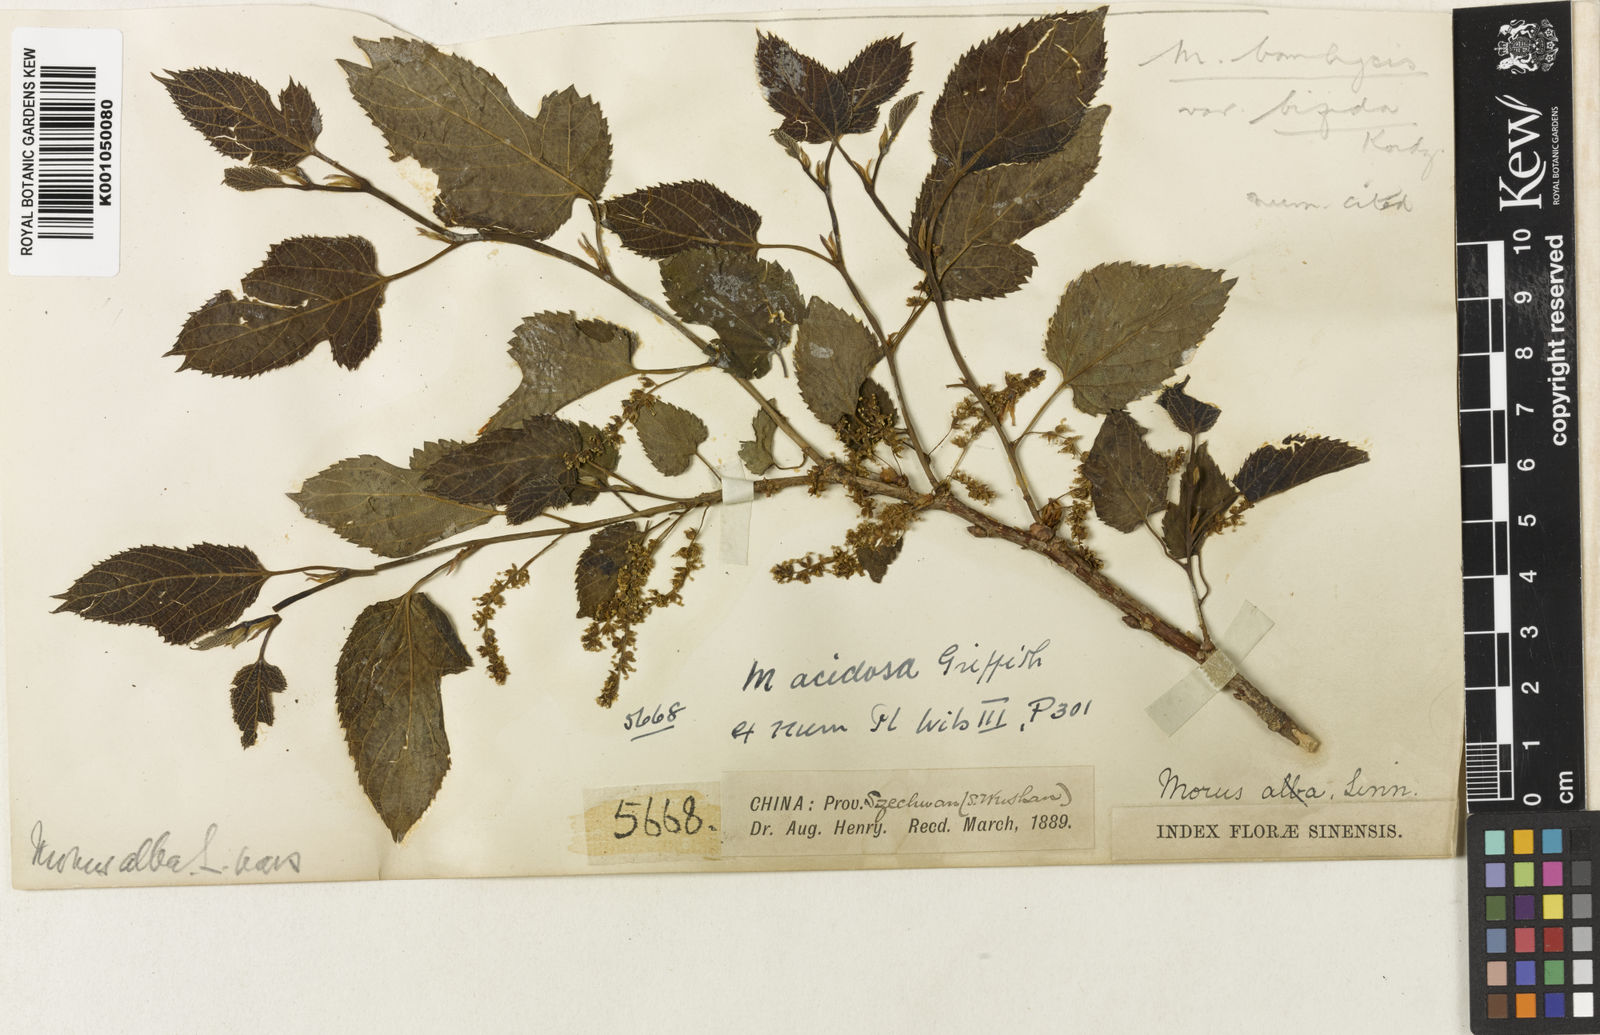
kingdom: Plantae
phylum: Tracheophyta
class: Magnoliopsida
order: Rosales
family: Moraceae
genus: Morus
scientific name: Morus indica
